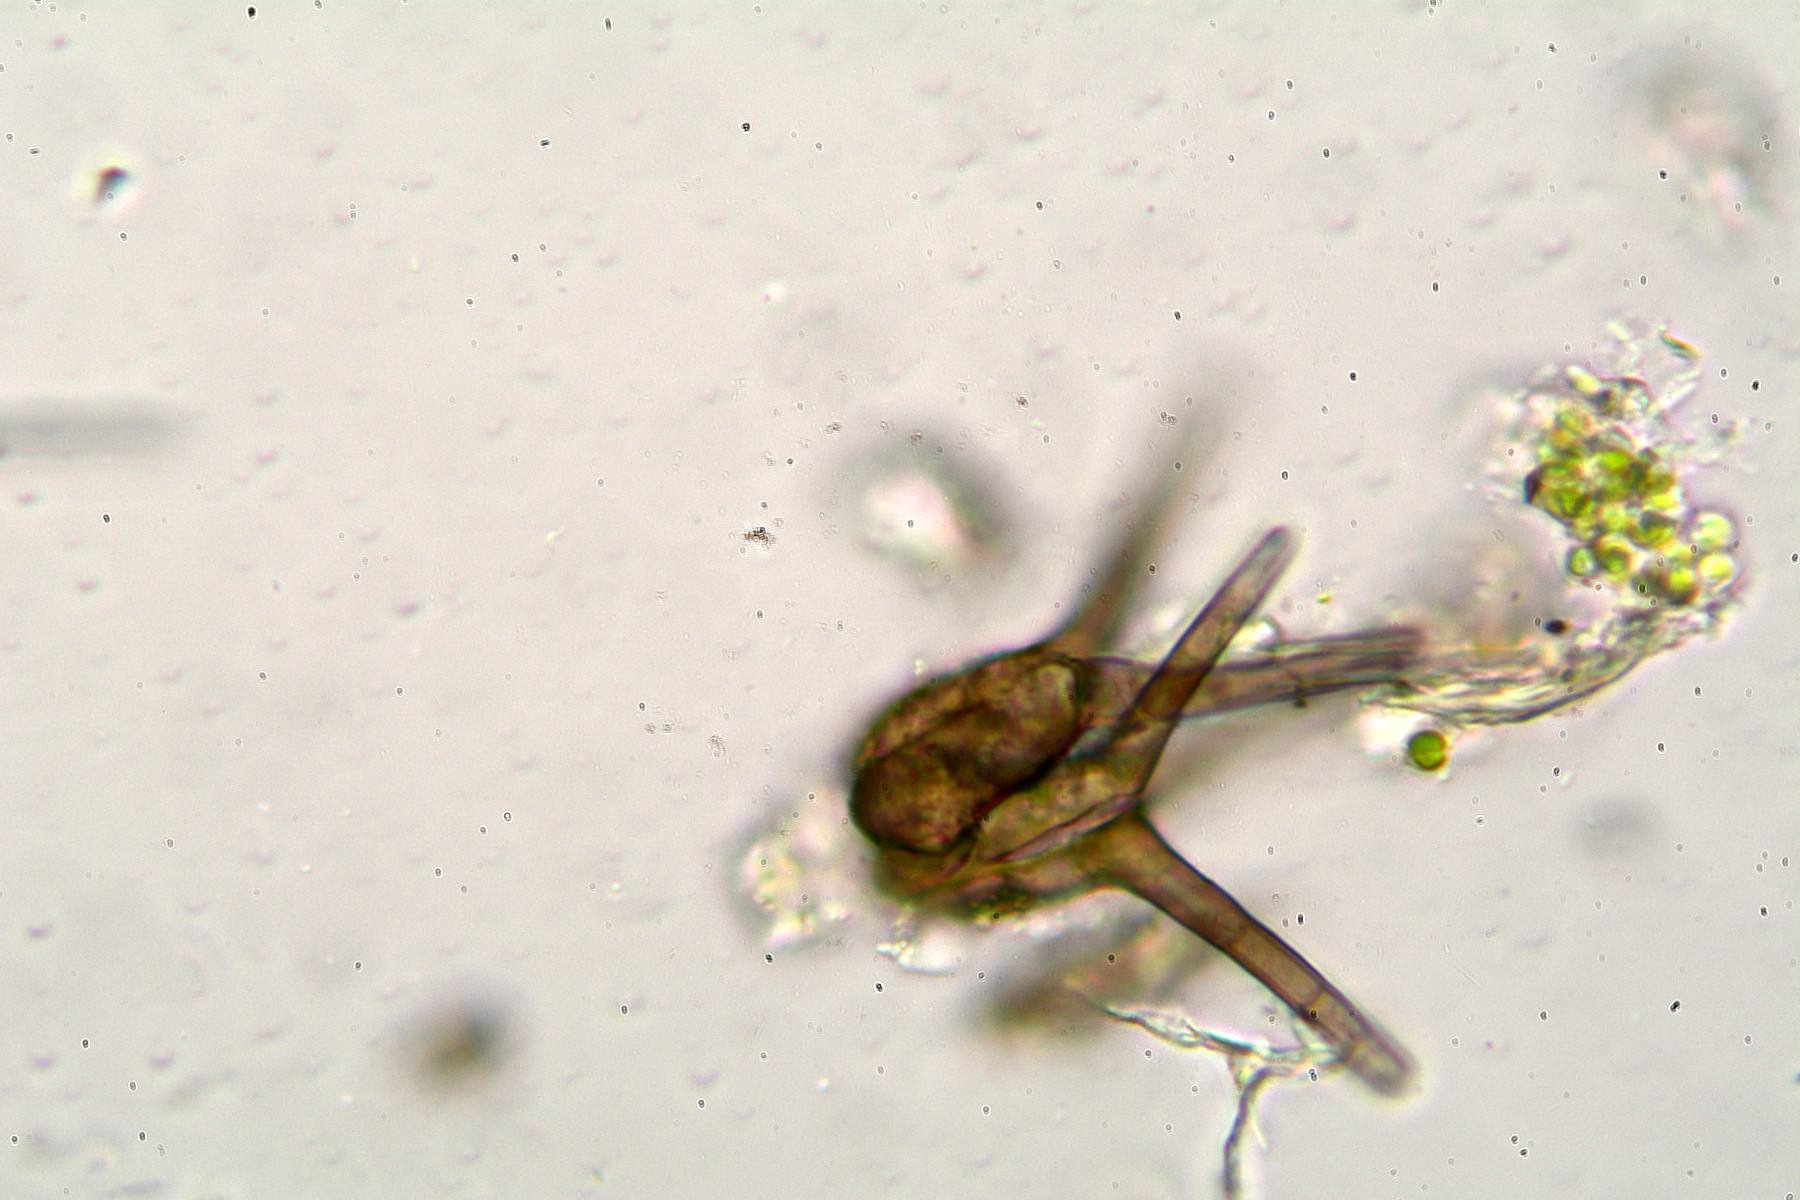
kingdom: Fungi
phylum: Ascomycota
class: Dothideomycetes
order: Pleosporales
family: Tetraplosphaeriaceae
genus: Tetraploa
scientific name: Tetraploa aristata
